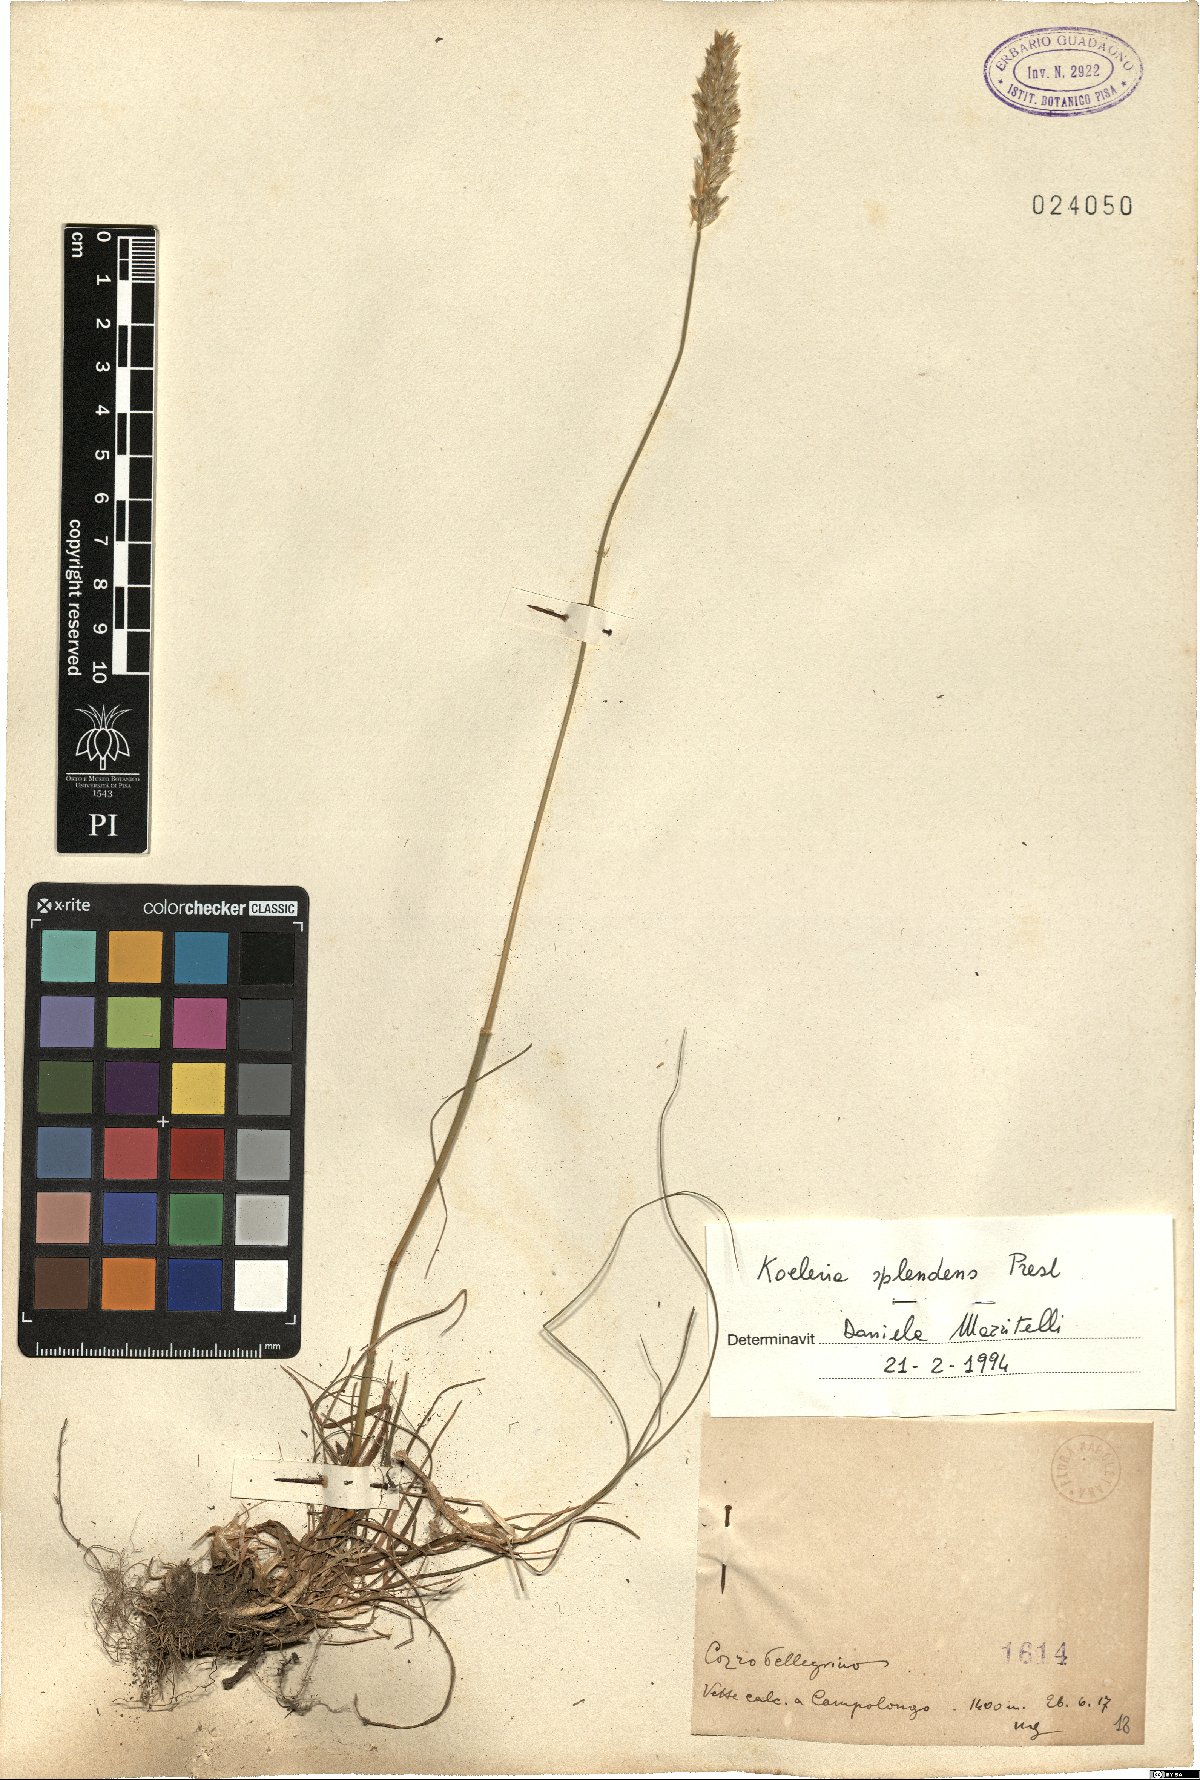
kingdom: Plantae
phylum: Tracheophyta
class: Liliopsida
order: Poales
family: Poaceae
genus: Koeleria
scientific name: Koeleria splendens
